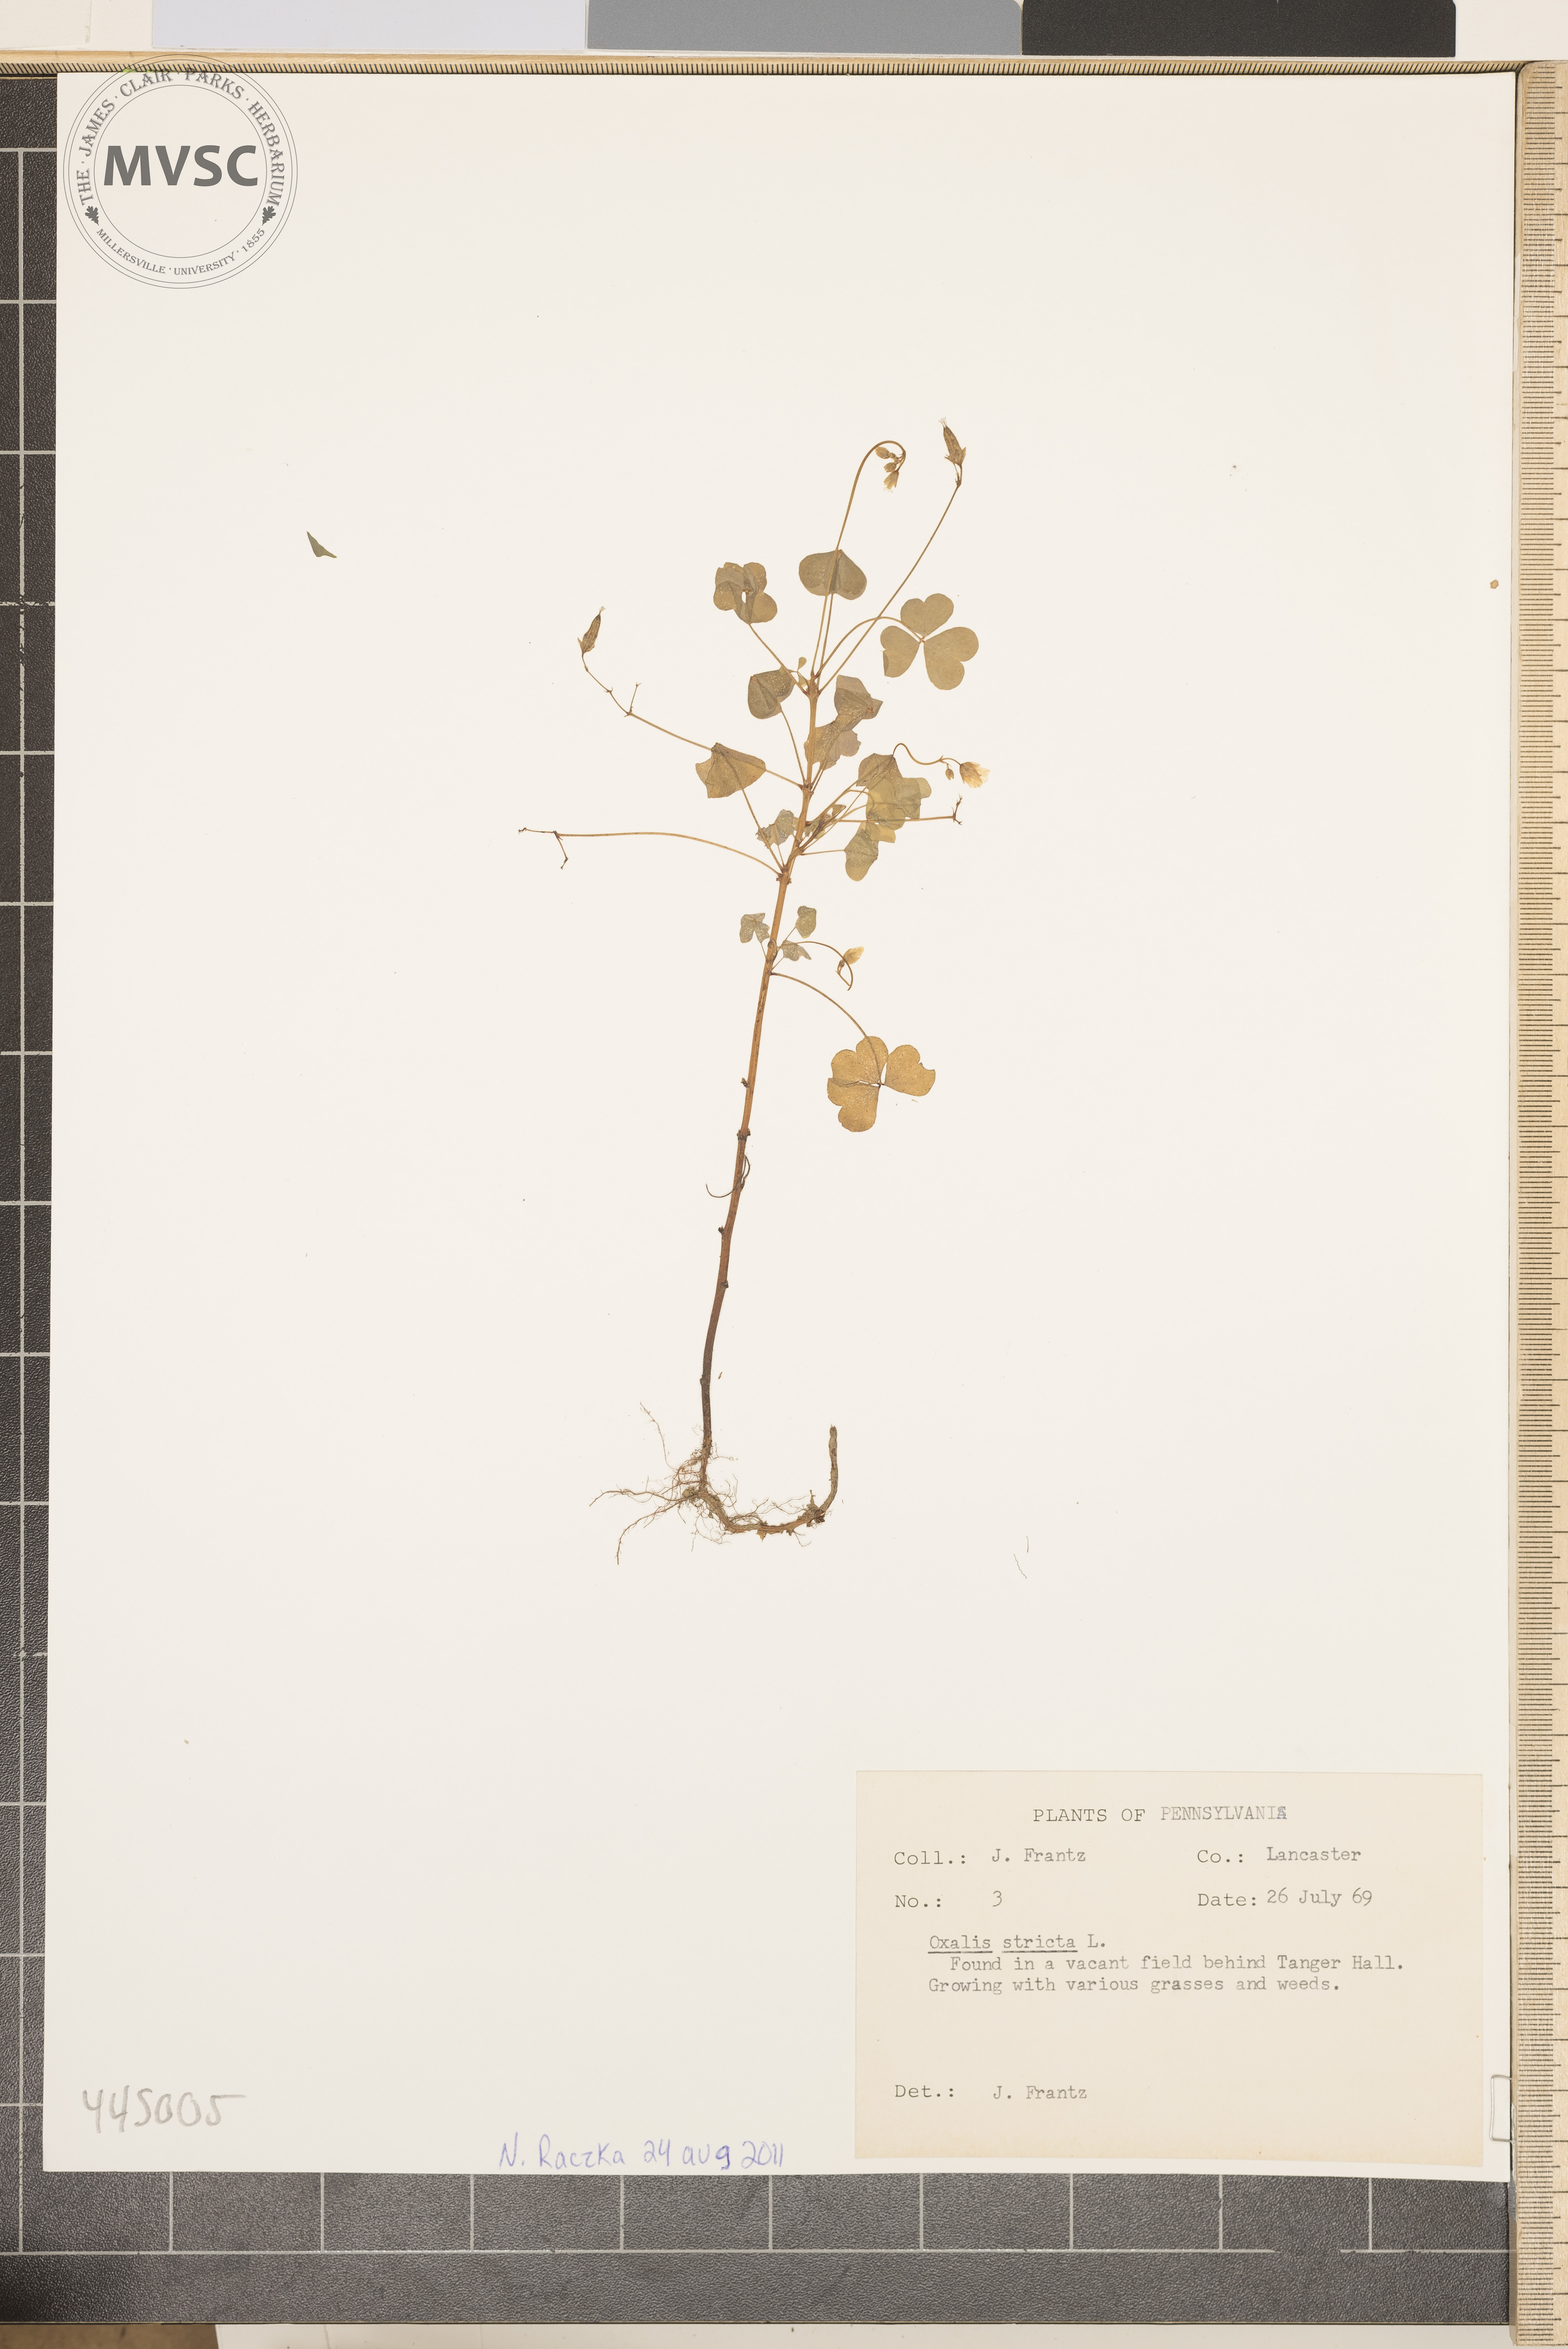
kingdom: Plantae
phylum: Tracheophyta
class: Magnoliopsida
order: Oxalidales
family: Oxalidaceae
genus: Oxalis
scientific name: Oxalis stricta
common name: Common yellow wood-sorrel
